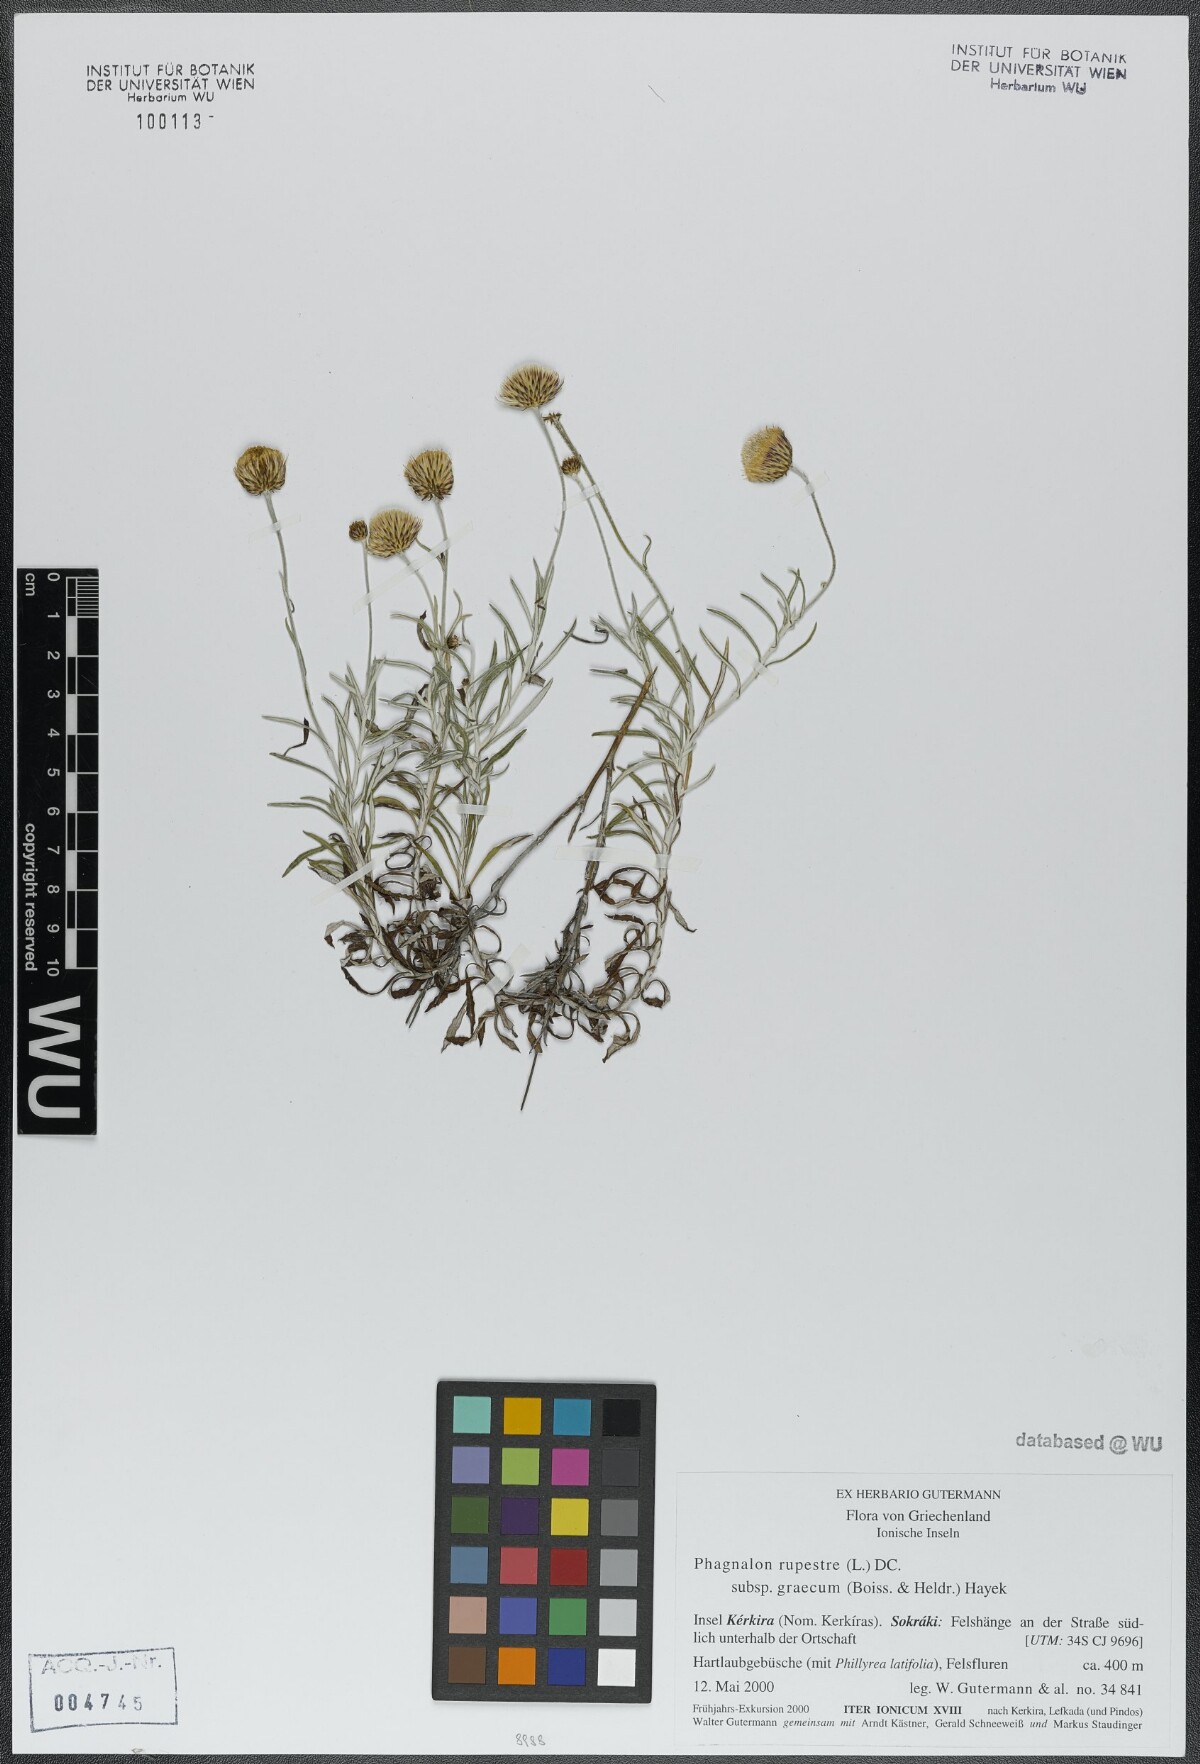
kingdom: Plantae
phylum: Tracheophyta
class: Magnoliopsida
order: Asterales
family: Asteraceae
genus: Phagnalon
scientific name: Phagnalon graecum
